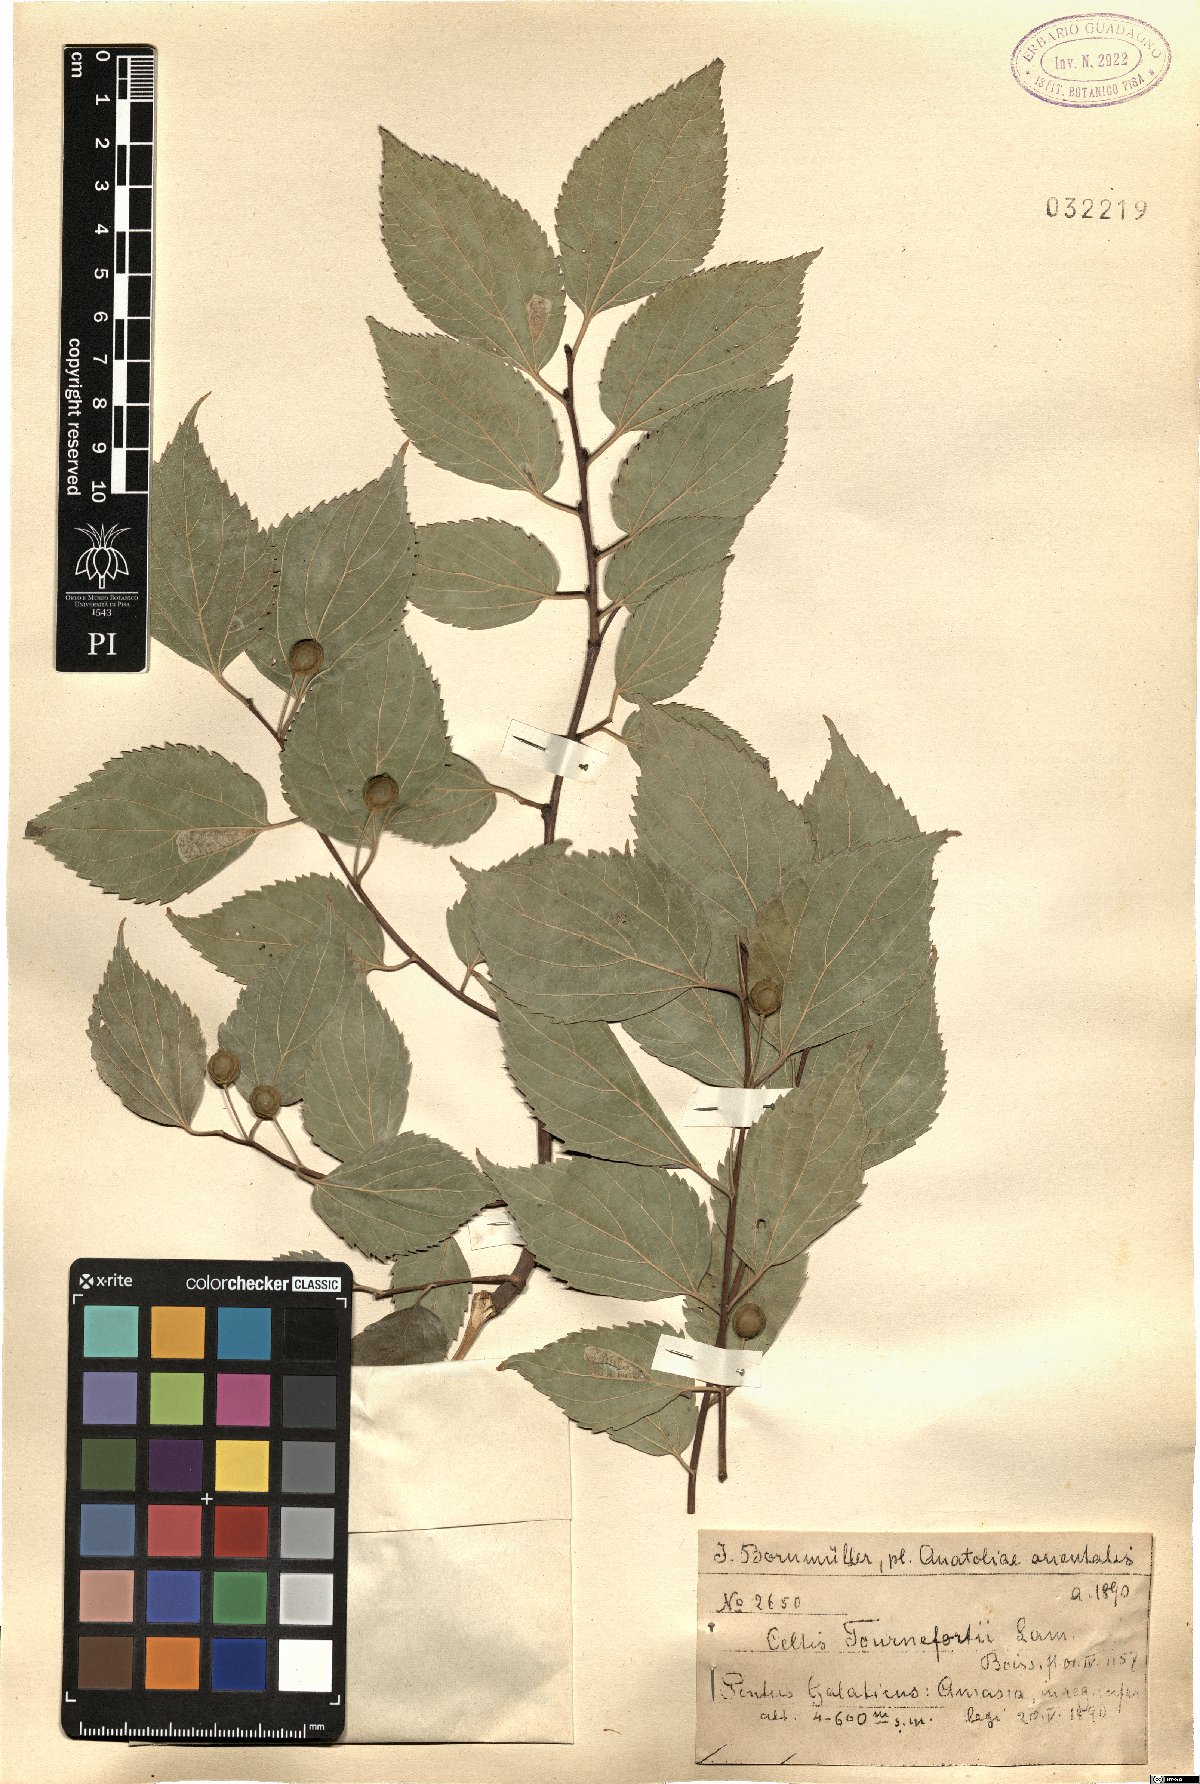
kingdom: Plantae
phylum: Tracheophyta
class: Magnoliopsida
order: Rosales
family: Cannabaceae
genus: Celtis
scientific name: Celtis tournefortii
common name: Oriental hackberry
